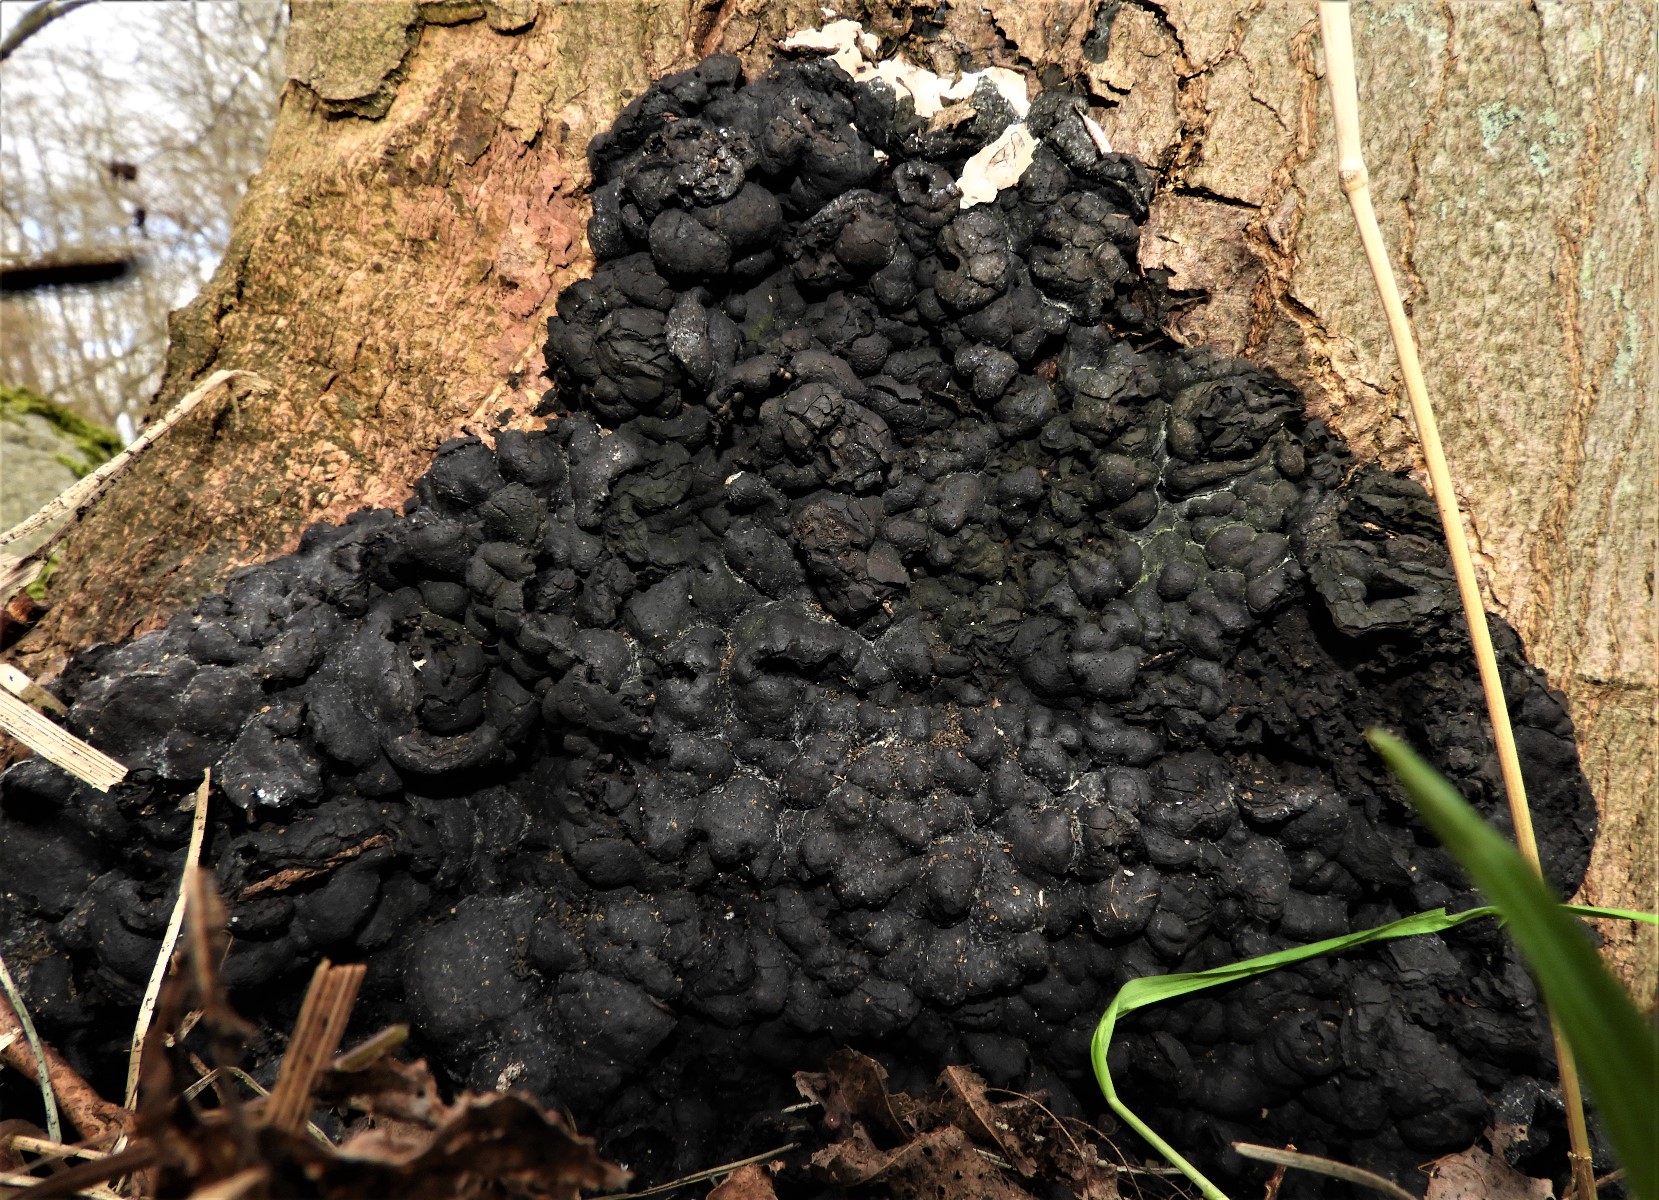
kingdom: Fungi
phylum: Ascomycota
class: Sordariomycetes
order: Xylariales
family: Xylariaceae
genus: Kretzschmaria
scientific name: Kretzschmaria deusta
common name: stor kulsvamp
